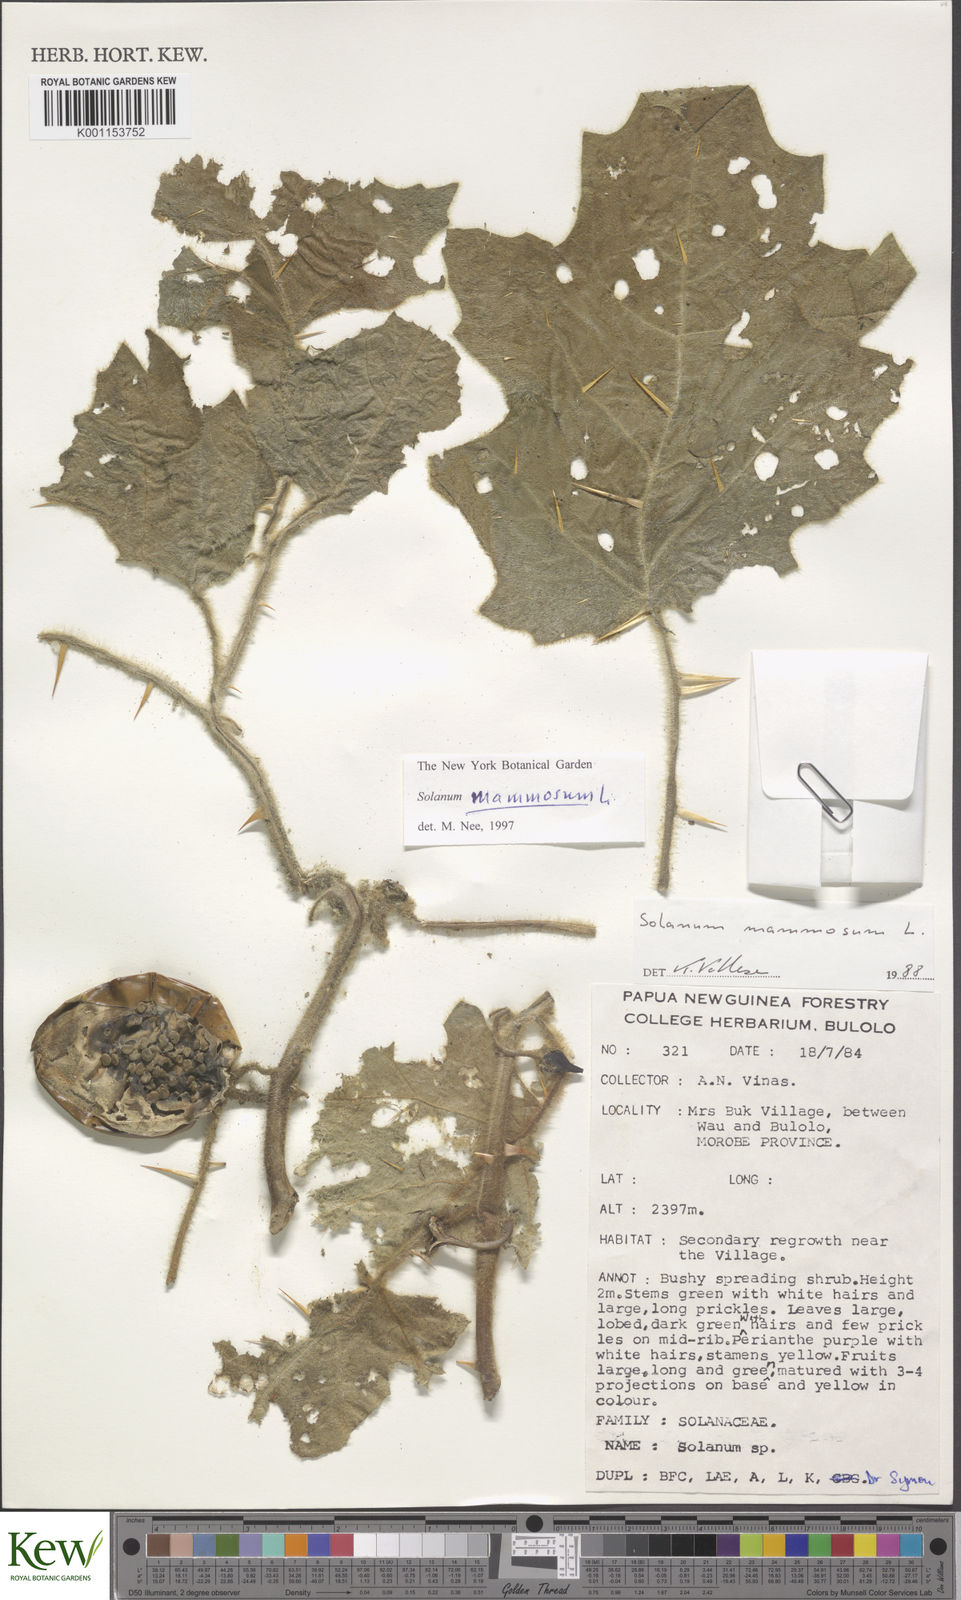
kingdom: Plantae
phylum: Tracheophyta
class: Magnoliopsida
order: Solanales
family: Solanaceae
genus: Solanum
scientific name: Solanum mammosum
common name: Nipple fruit
